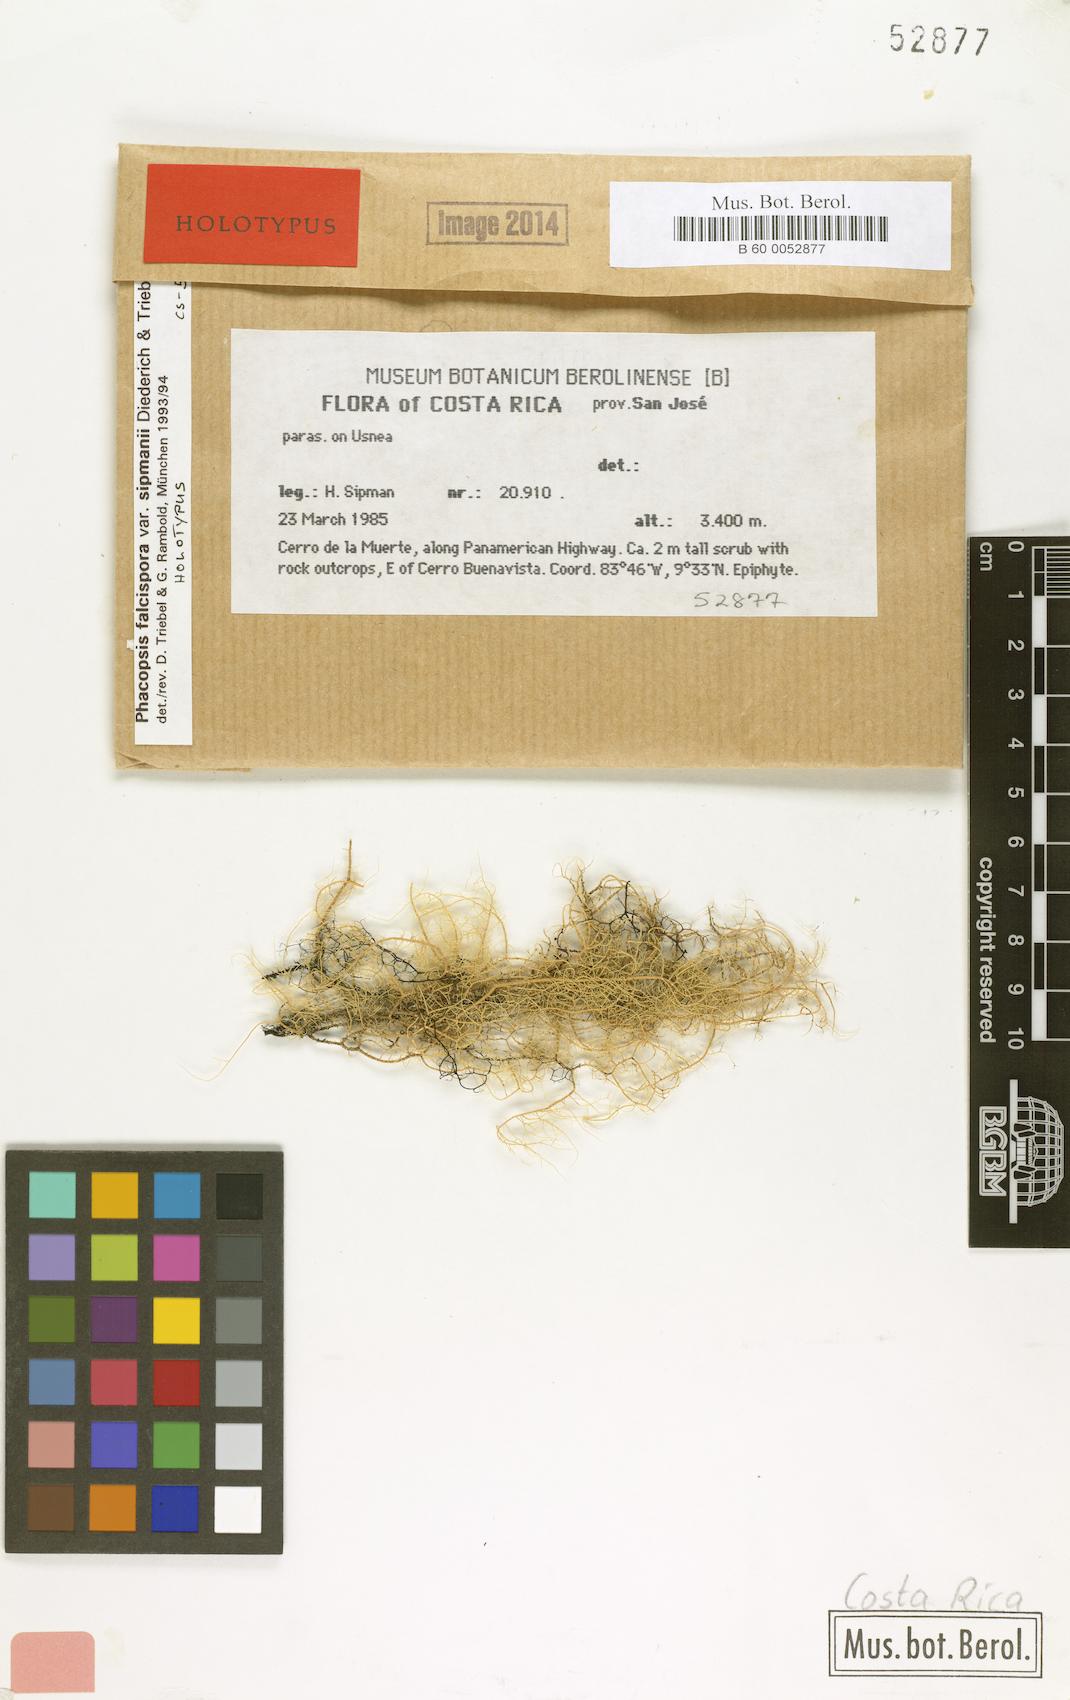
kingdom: Fungi
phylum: Ascomycota
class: Lecanoromycetes
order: Lecanorales
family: Parmeliaceae
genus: Nesolechia
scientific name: Nesolechia falcispora
